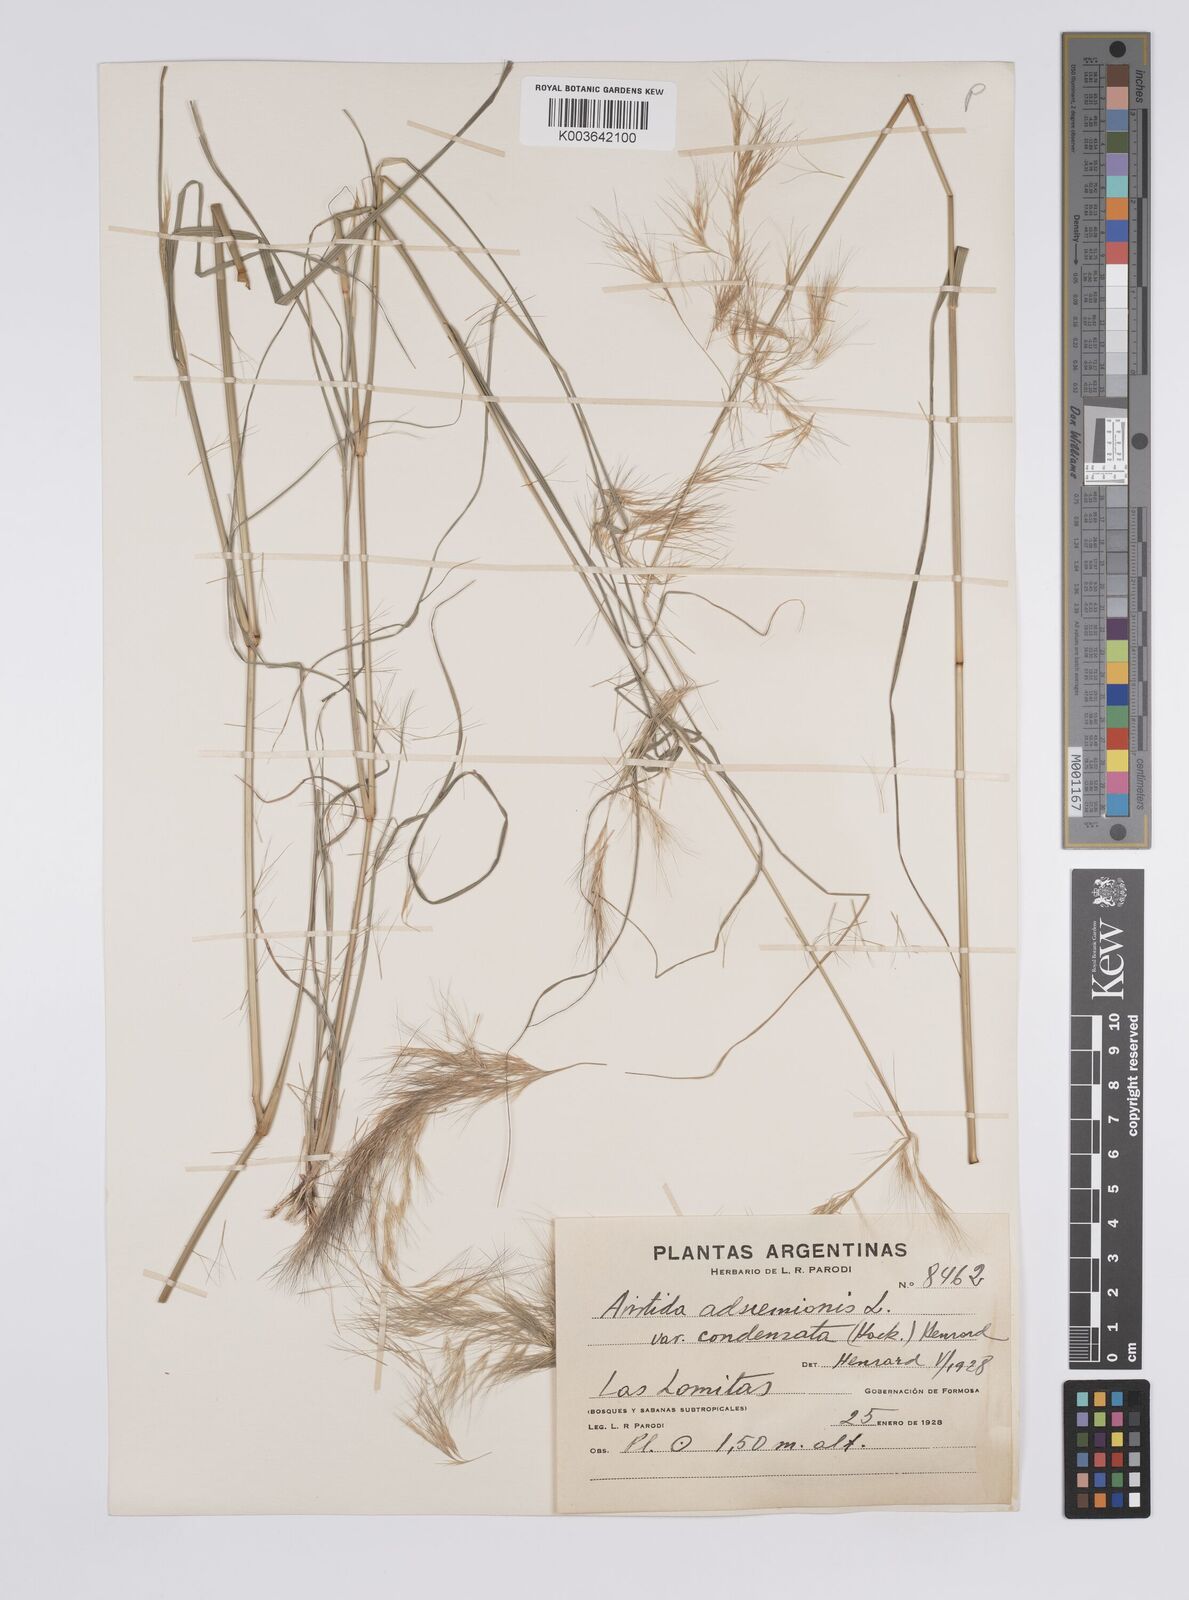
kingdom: Plantae
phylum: Tracheophyta
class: Liliopsida
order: Poales
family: Poaceae
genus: Aristida
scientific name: Aristida adscensionis
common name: Sixweeks threeawn
